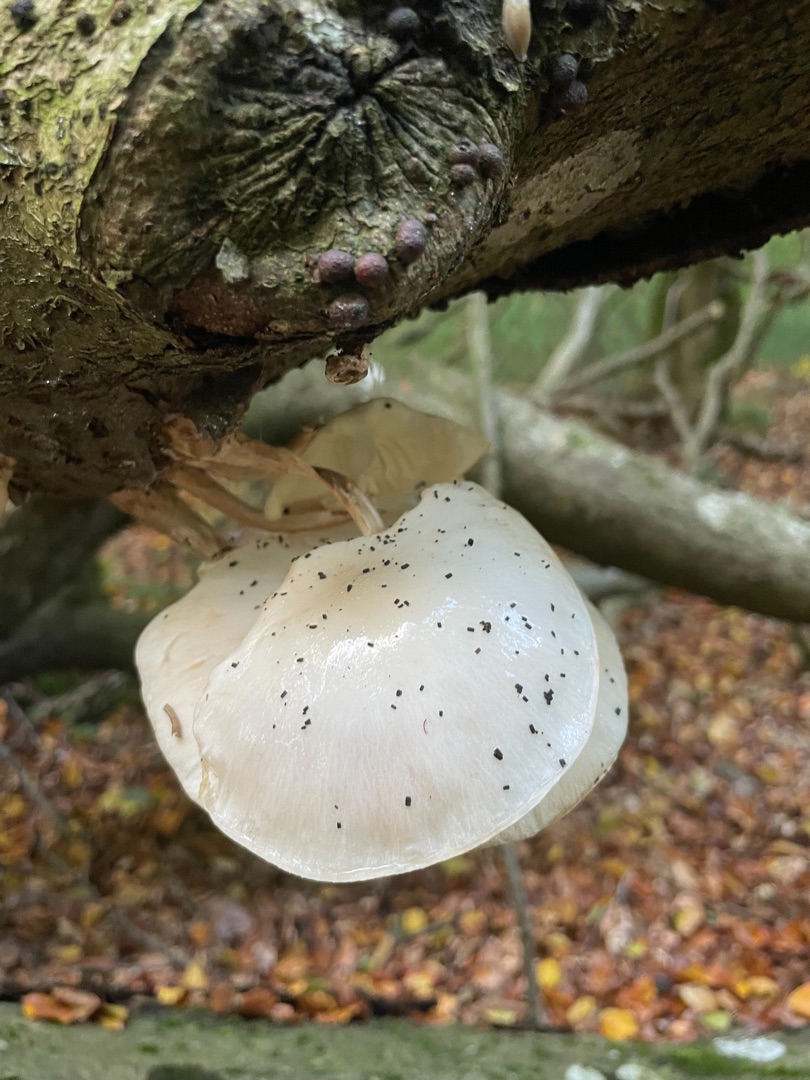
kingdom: Fungi
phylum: Basidiomycota
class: Agaricomycetes
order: Agaricales
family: Physalacriaceae
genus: Mucidula
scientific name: Mucidula mucida
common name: Porcelænshat
